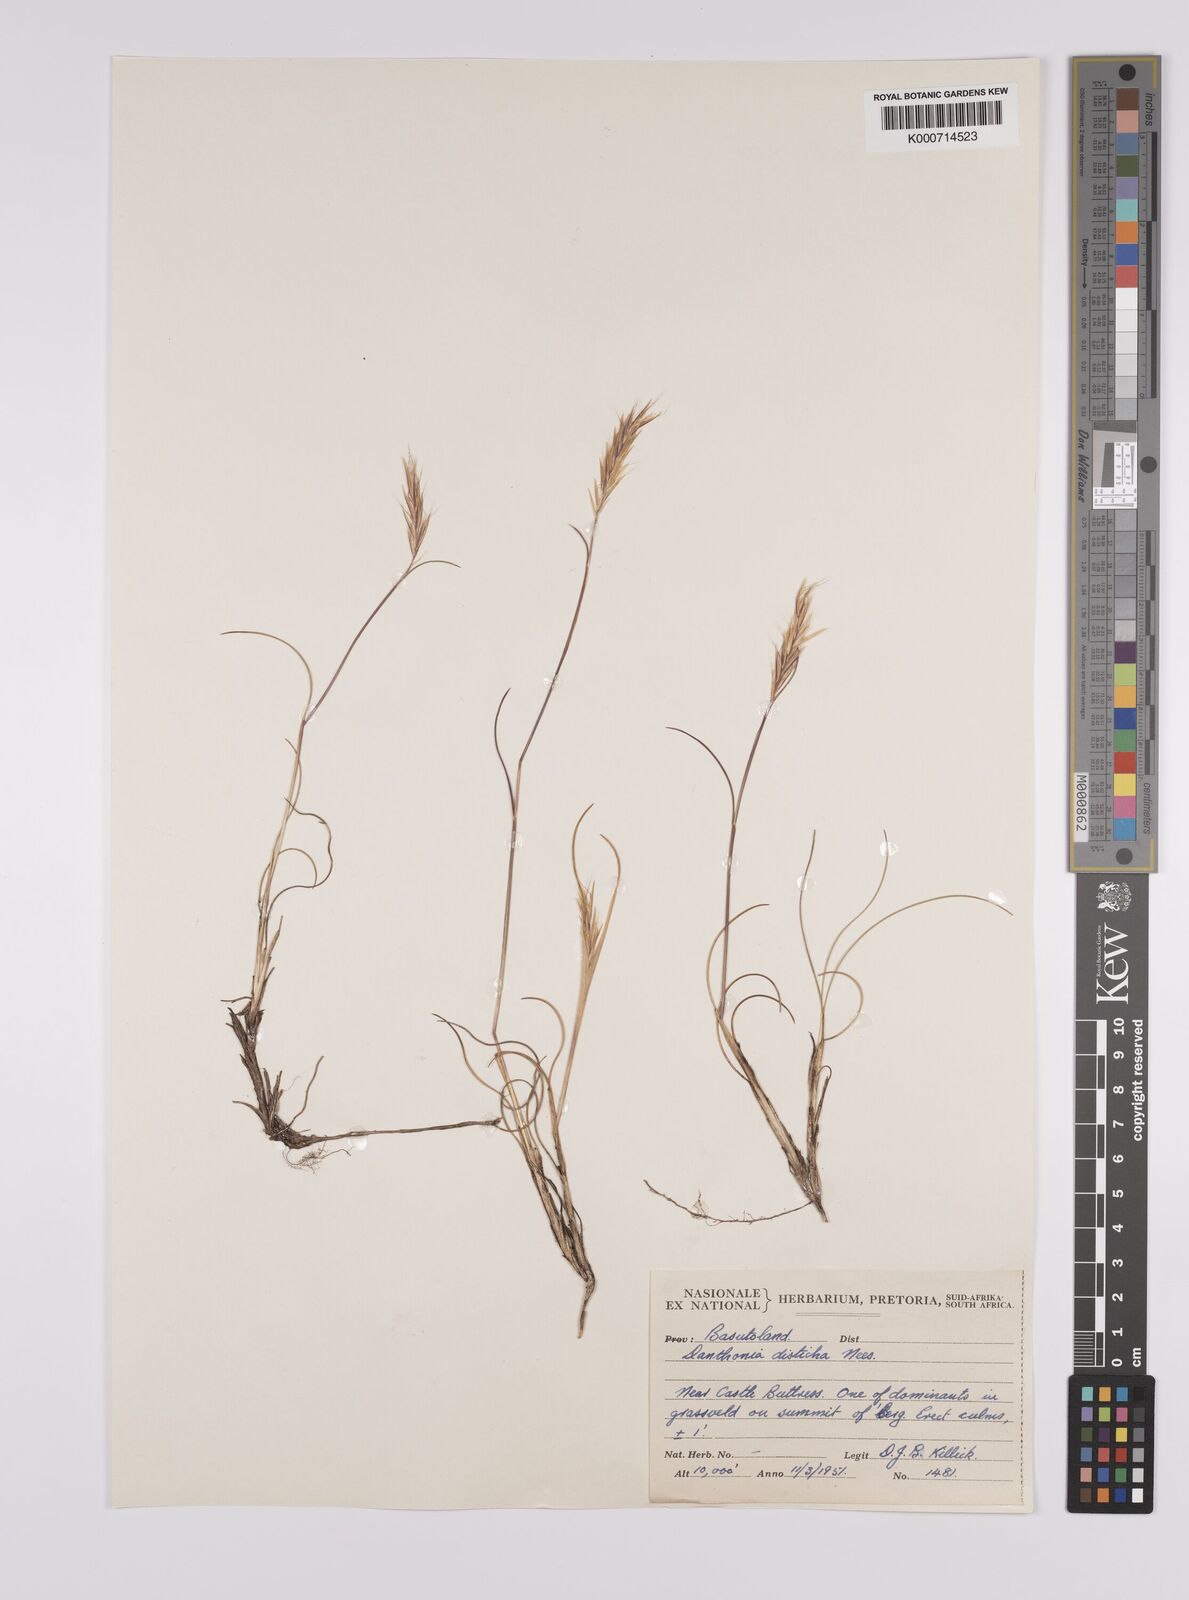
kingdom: Plantae
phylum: Tracheophyta
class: Liliopsida
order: Poales
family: Poaceae
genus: Tenaxia
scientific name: Tenaxia disticha
